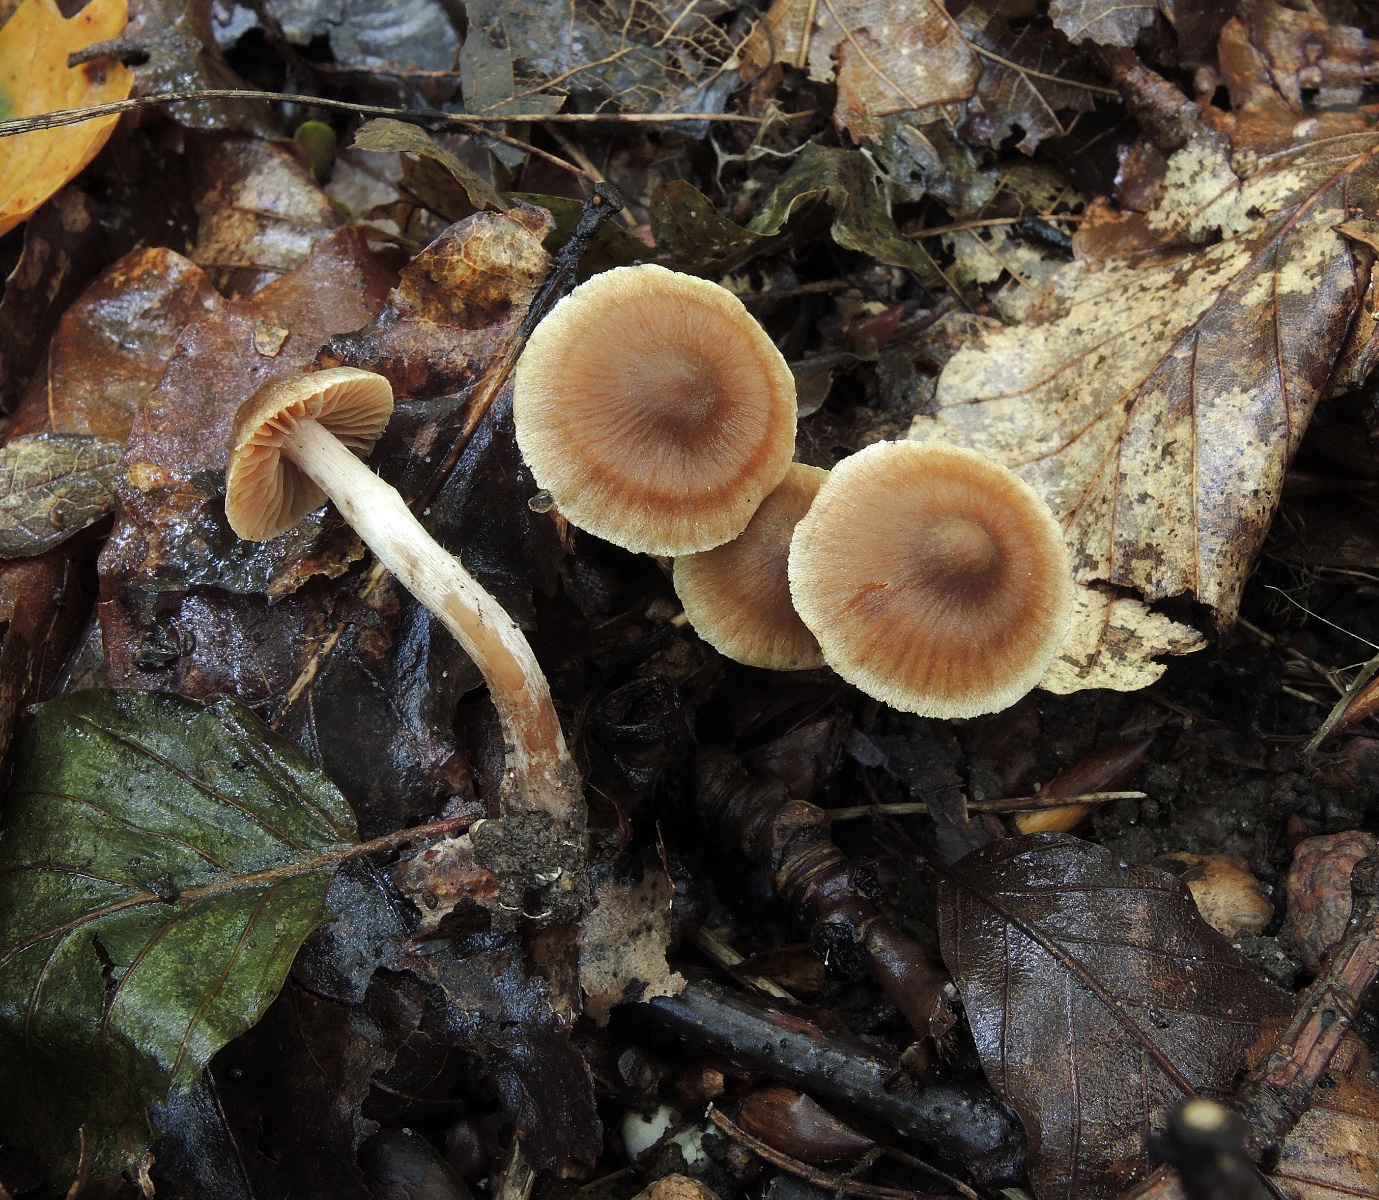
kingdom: Fungi
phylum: Basidiomycota
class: Agaricomycetes
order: Agaricales
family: Cortinariaceae
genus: Cortinarius
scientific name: Cortinarius punctatiformis
